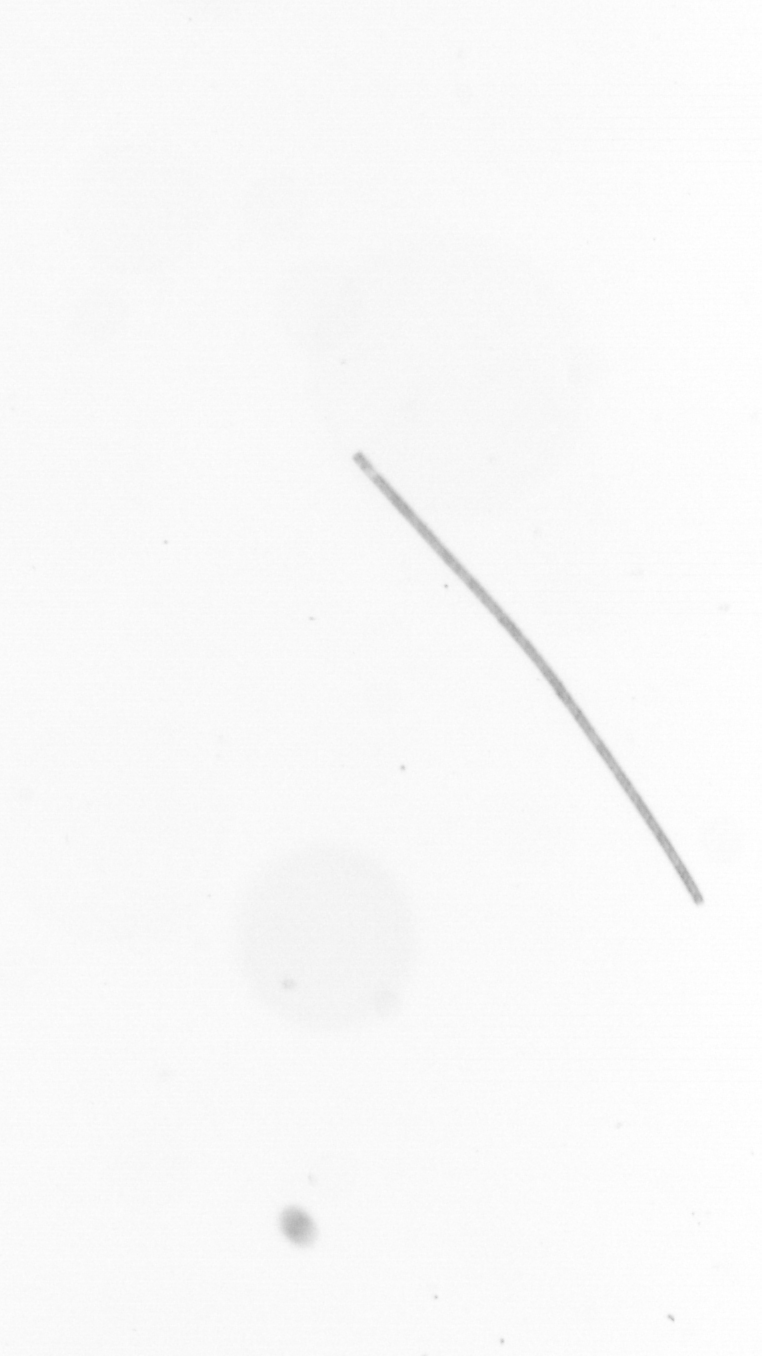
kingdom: Chromista
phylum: Ochrophyta
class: Bacillariophyceae
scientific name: Bacillariophyceae
